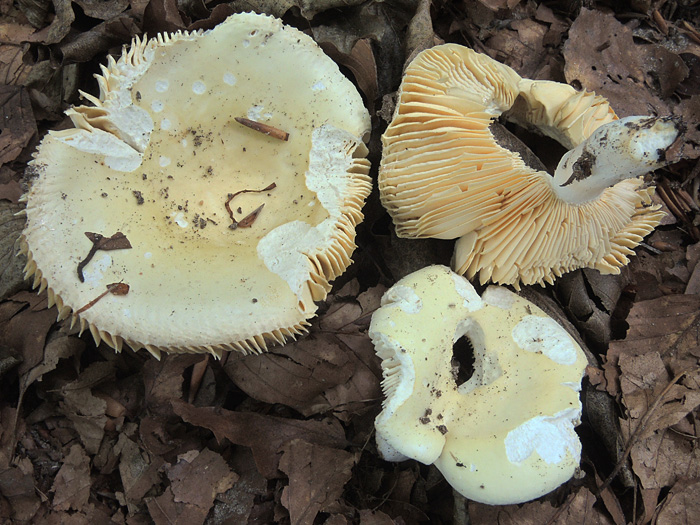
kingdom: Fungi
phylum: Basidiomycota
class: Agaricomycetes
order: Russulales
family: Russulaceae
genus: Russula
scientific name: Russula veternosa
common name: blødkødet skørhat
